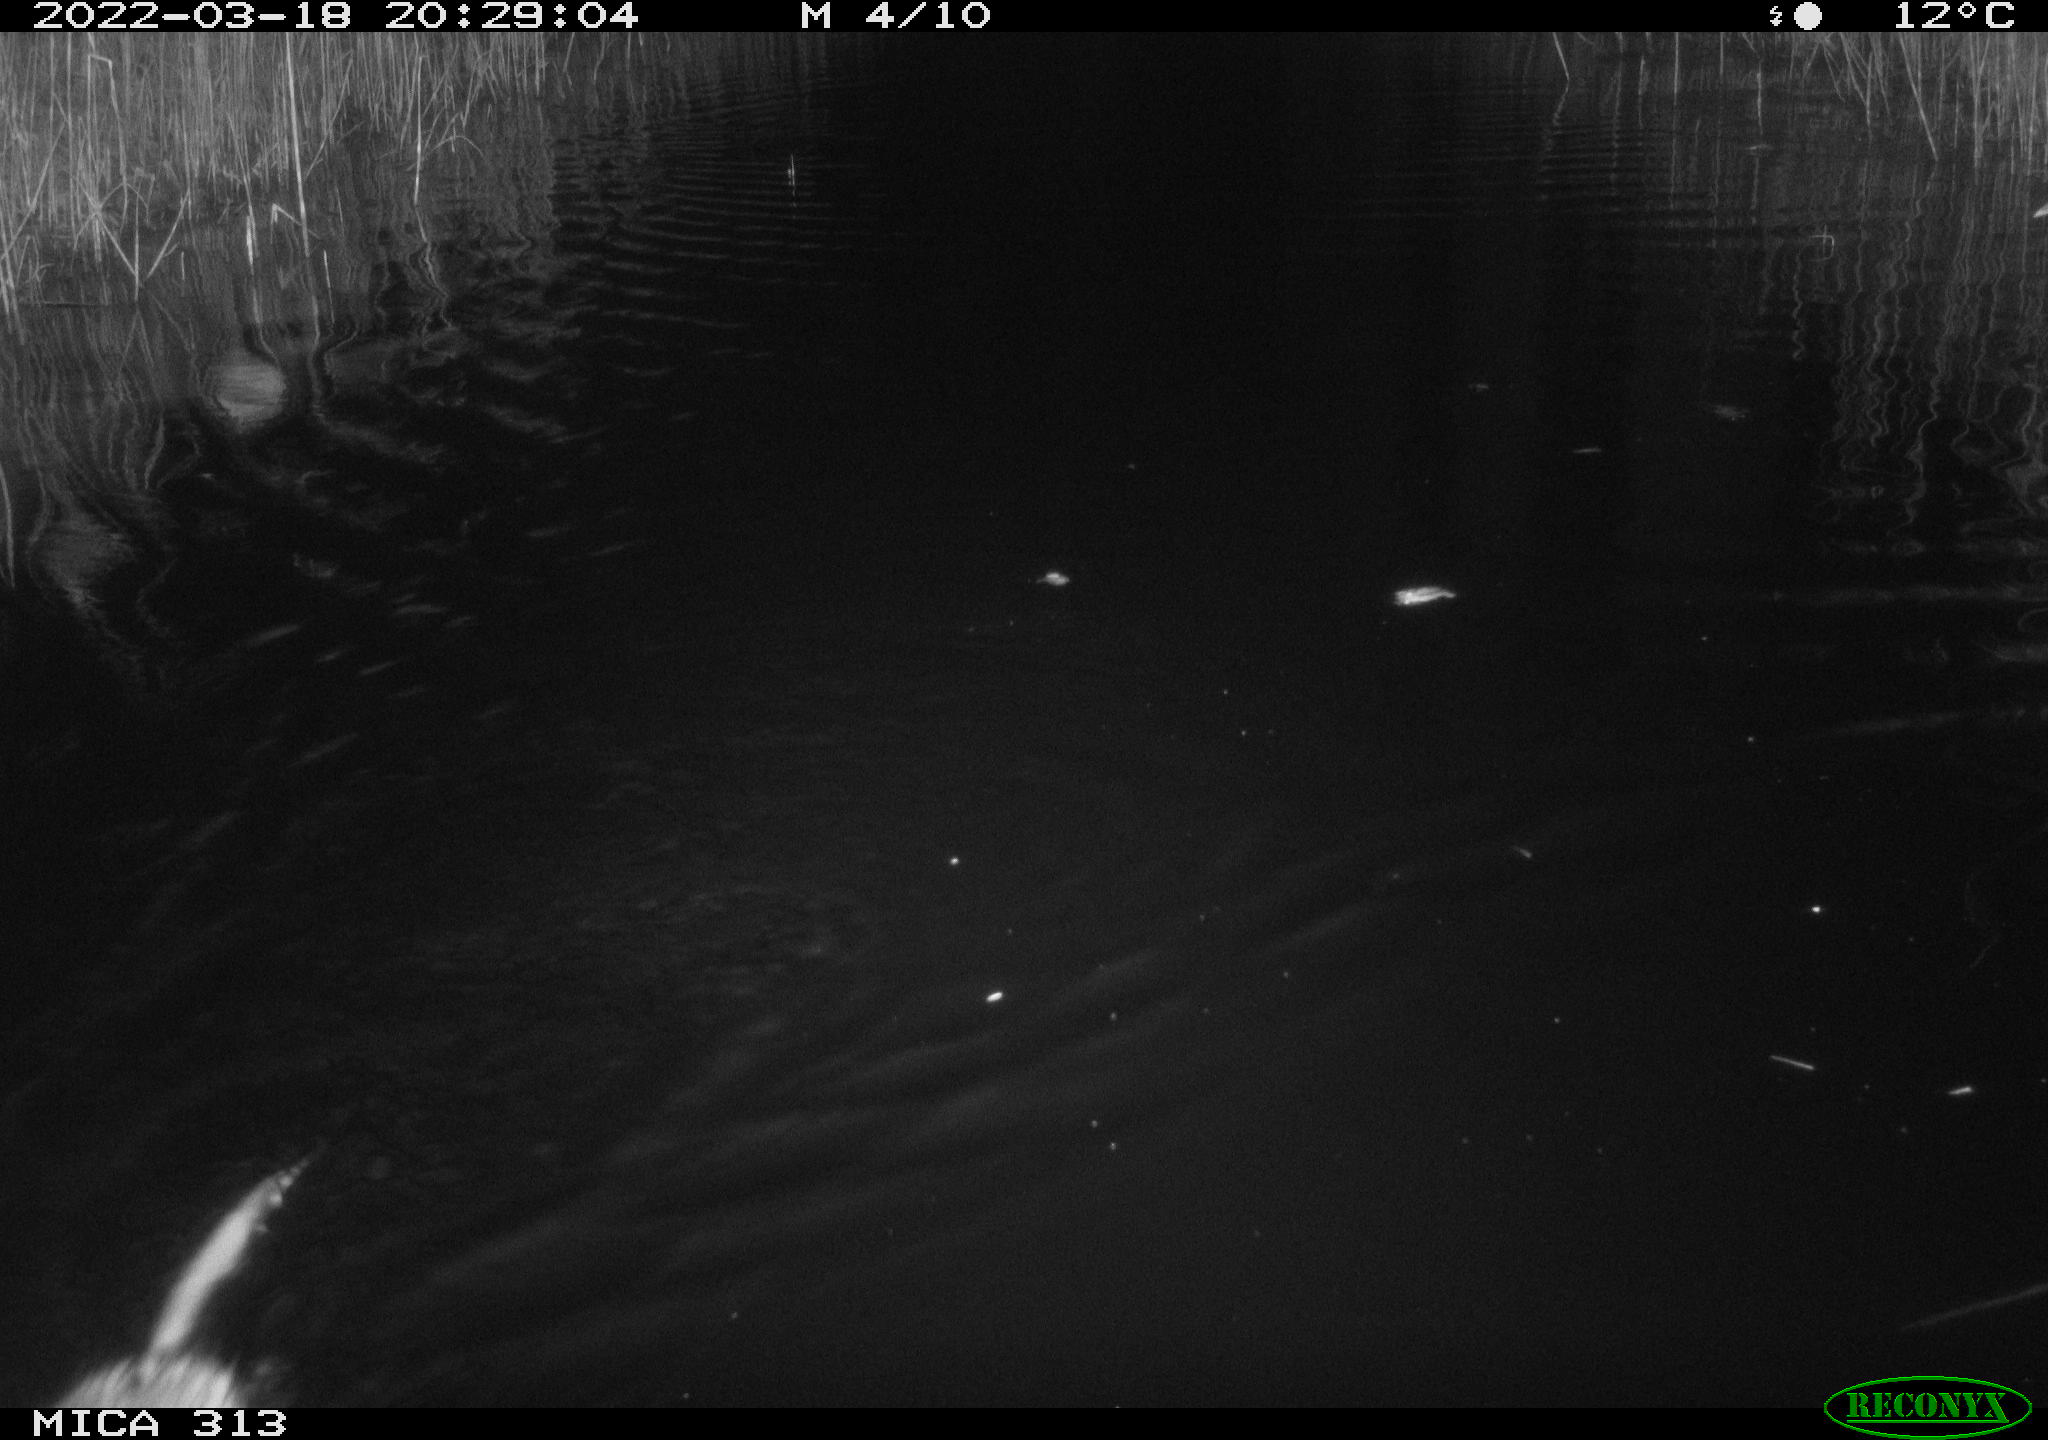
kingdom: Animalia
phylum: Chordata
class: Mammalia
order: Rodentia
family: Cricetidae
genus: Ondatra
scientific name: Ondatra zibethicus
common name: Muskrat
